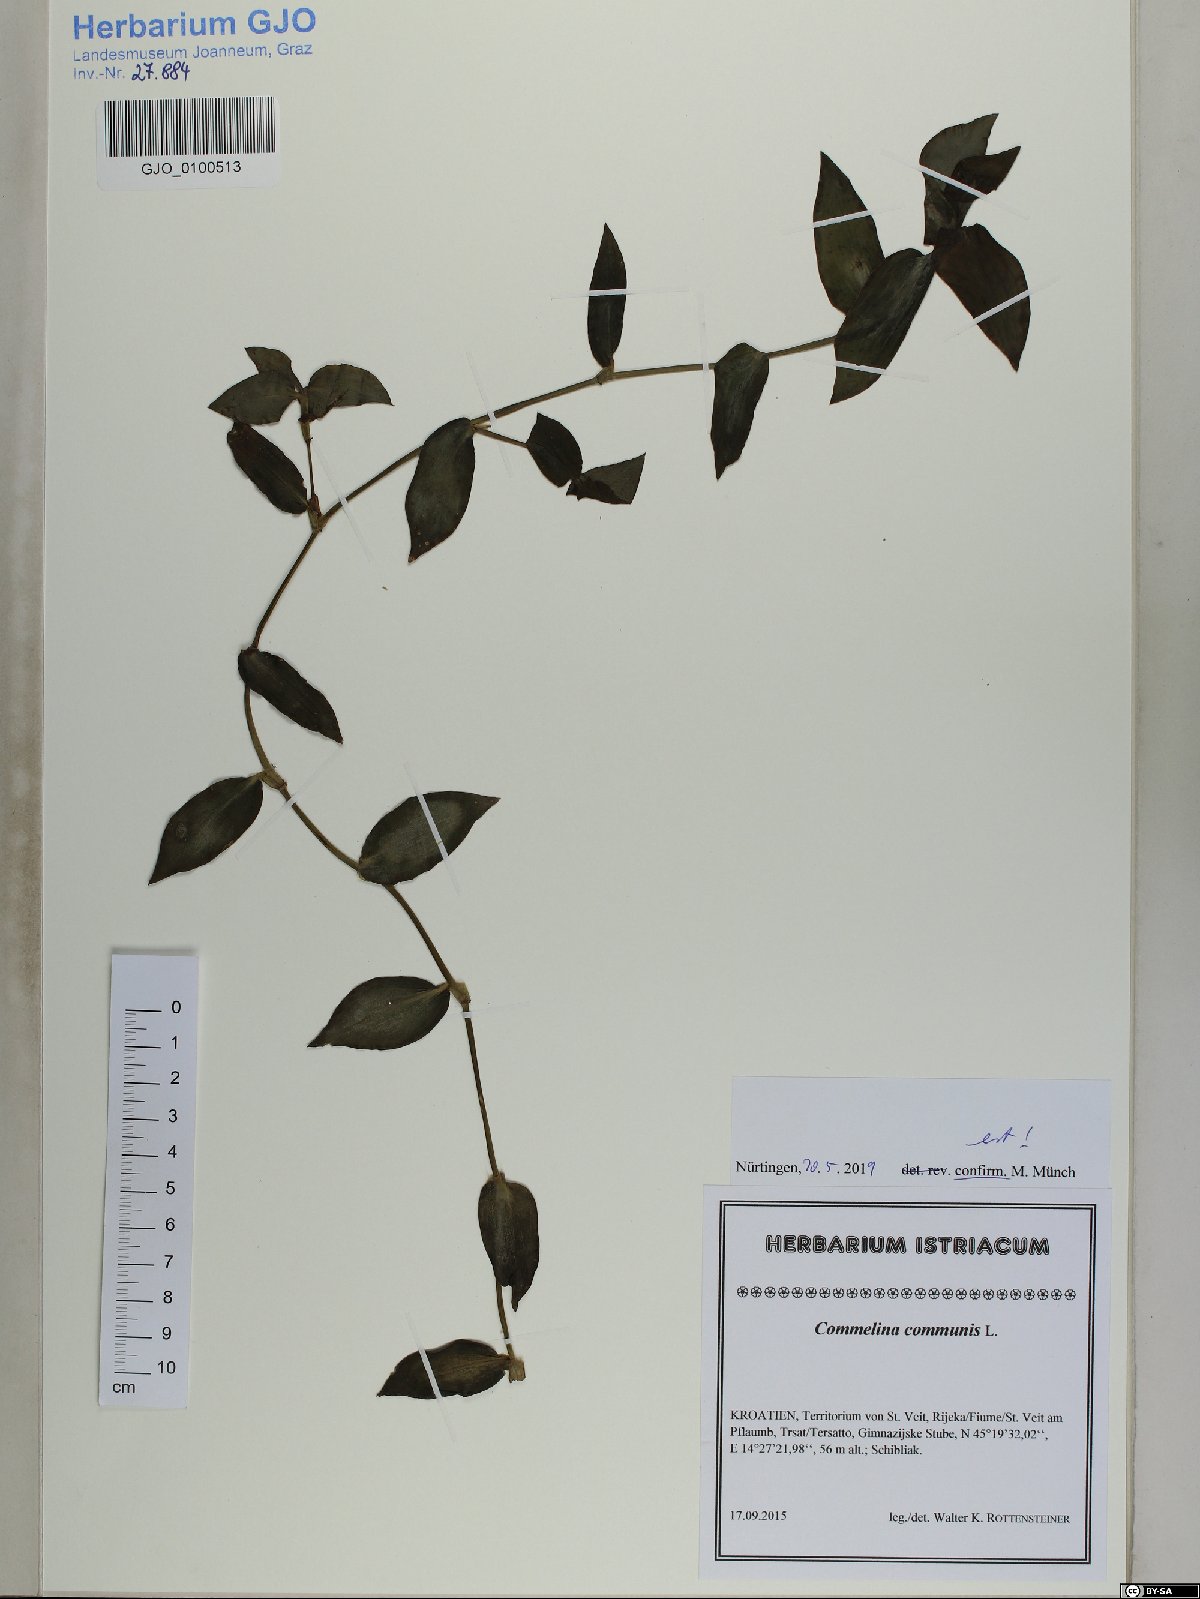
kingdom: Plantae
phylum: Tracheophyta
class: Liliopsida
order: Commelinales
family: Commelinaceae
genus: Commelina
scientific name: Commelina communis
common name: Asiatic dayflower
